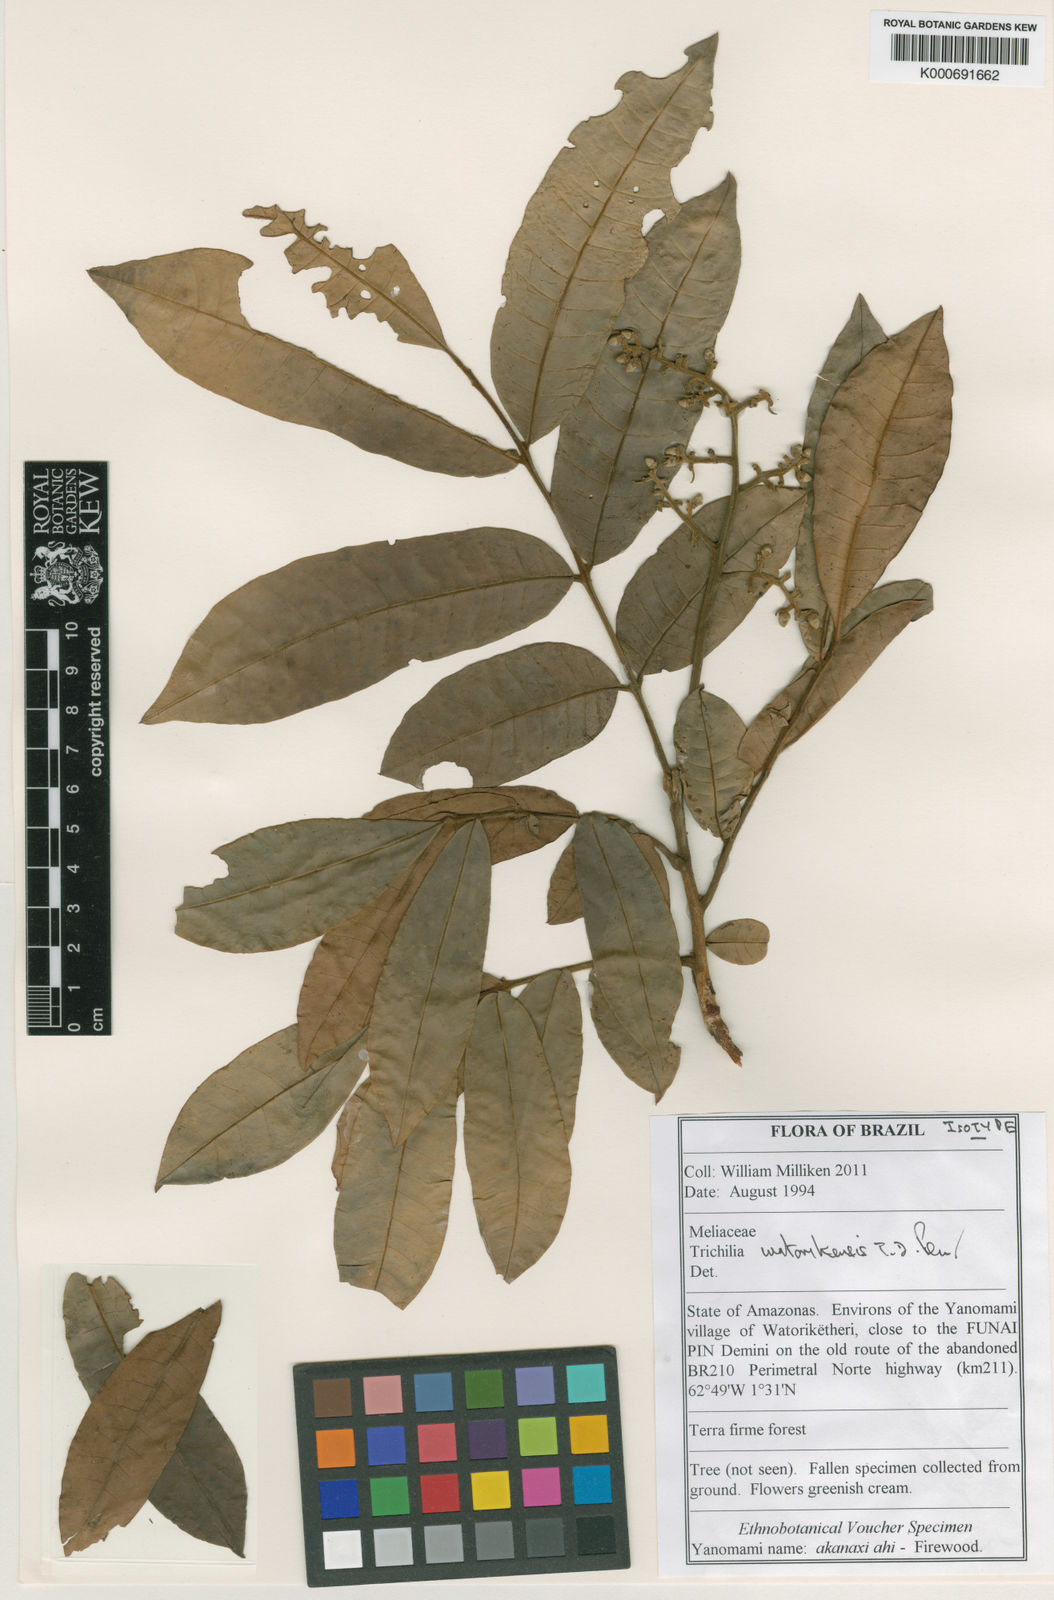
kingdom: Plantae
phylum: Tracheophyta
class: Magnoliopsida
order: Sapindales
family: Meliaceae
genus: Trichilia
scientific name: Trichilia
